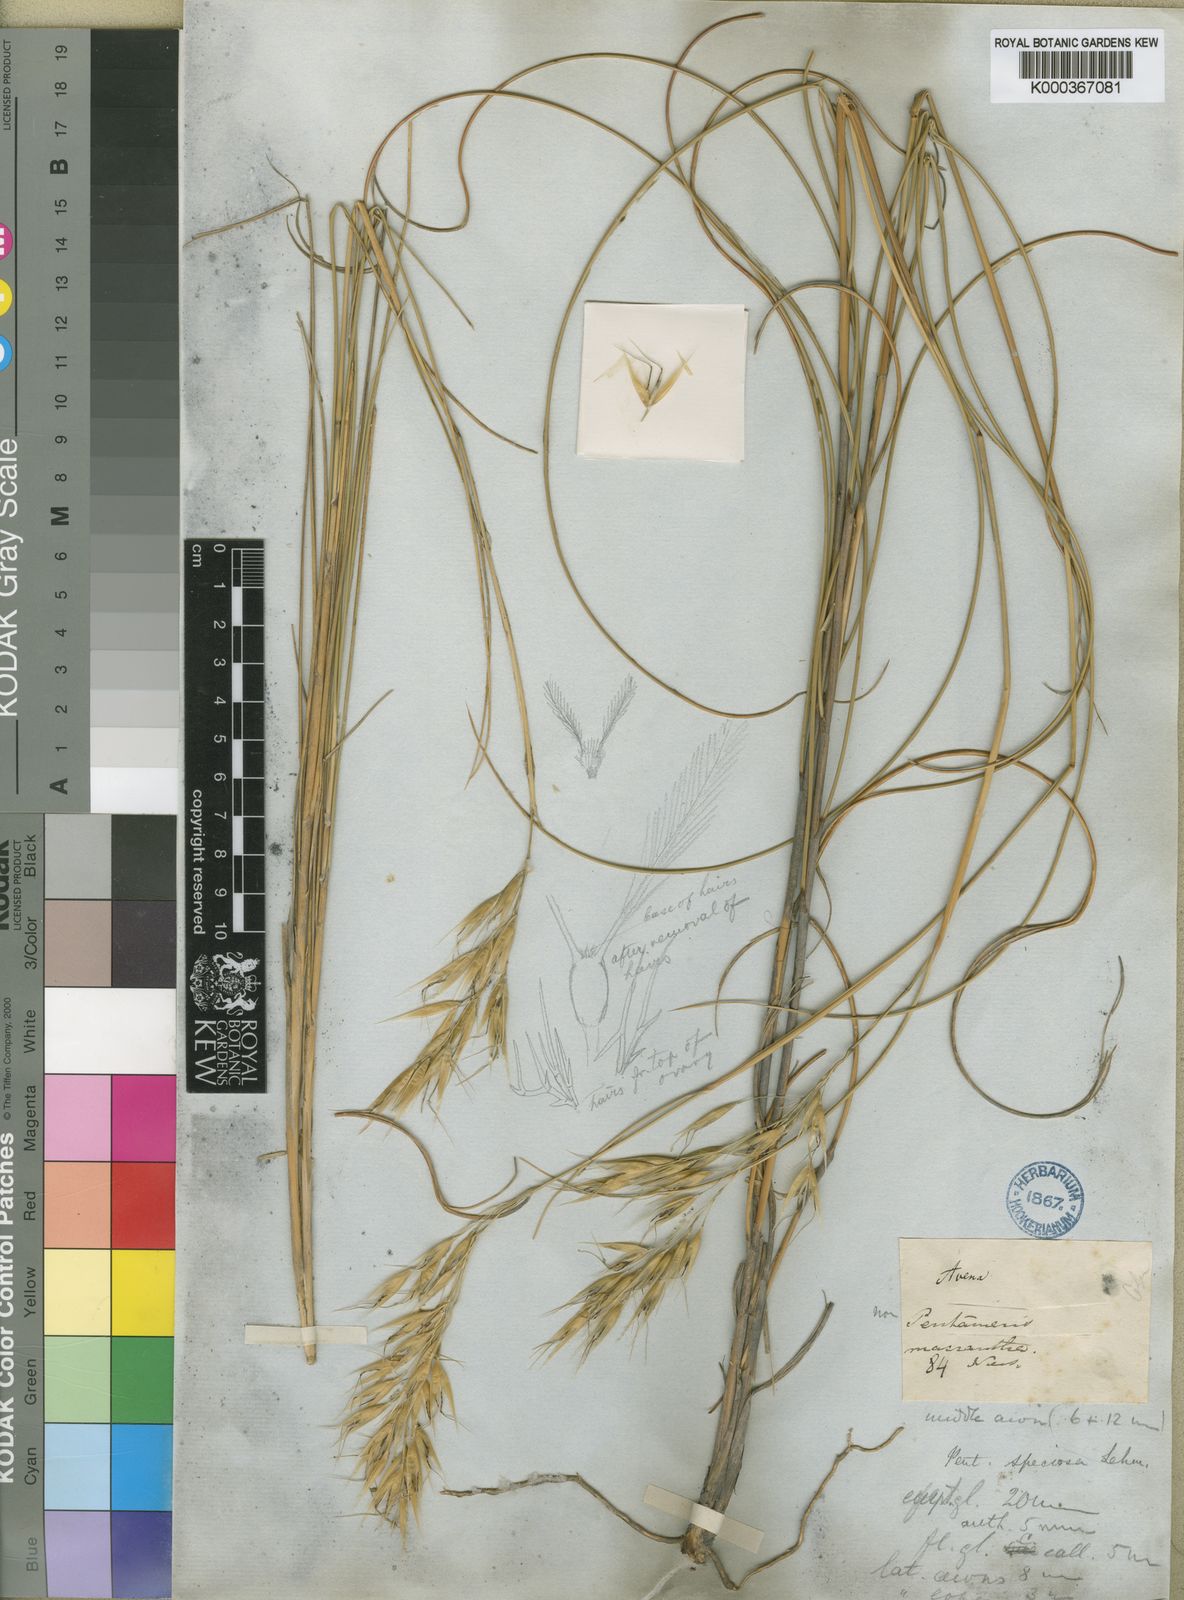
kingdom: Plantae
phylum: Tracheophyta
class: Liliopsida
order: Poales
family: Poaceae
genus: Pentameris
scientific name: Pentameris macrocalycina
